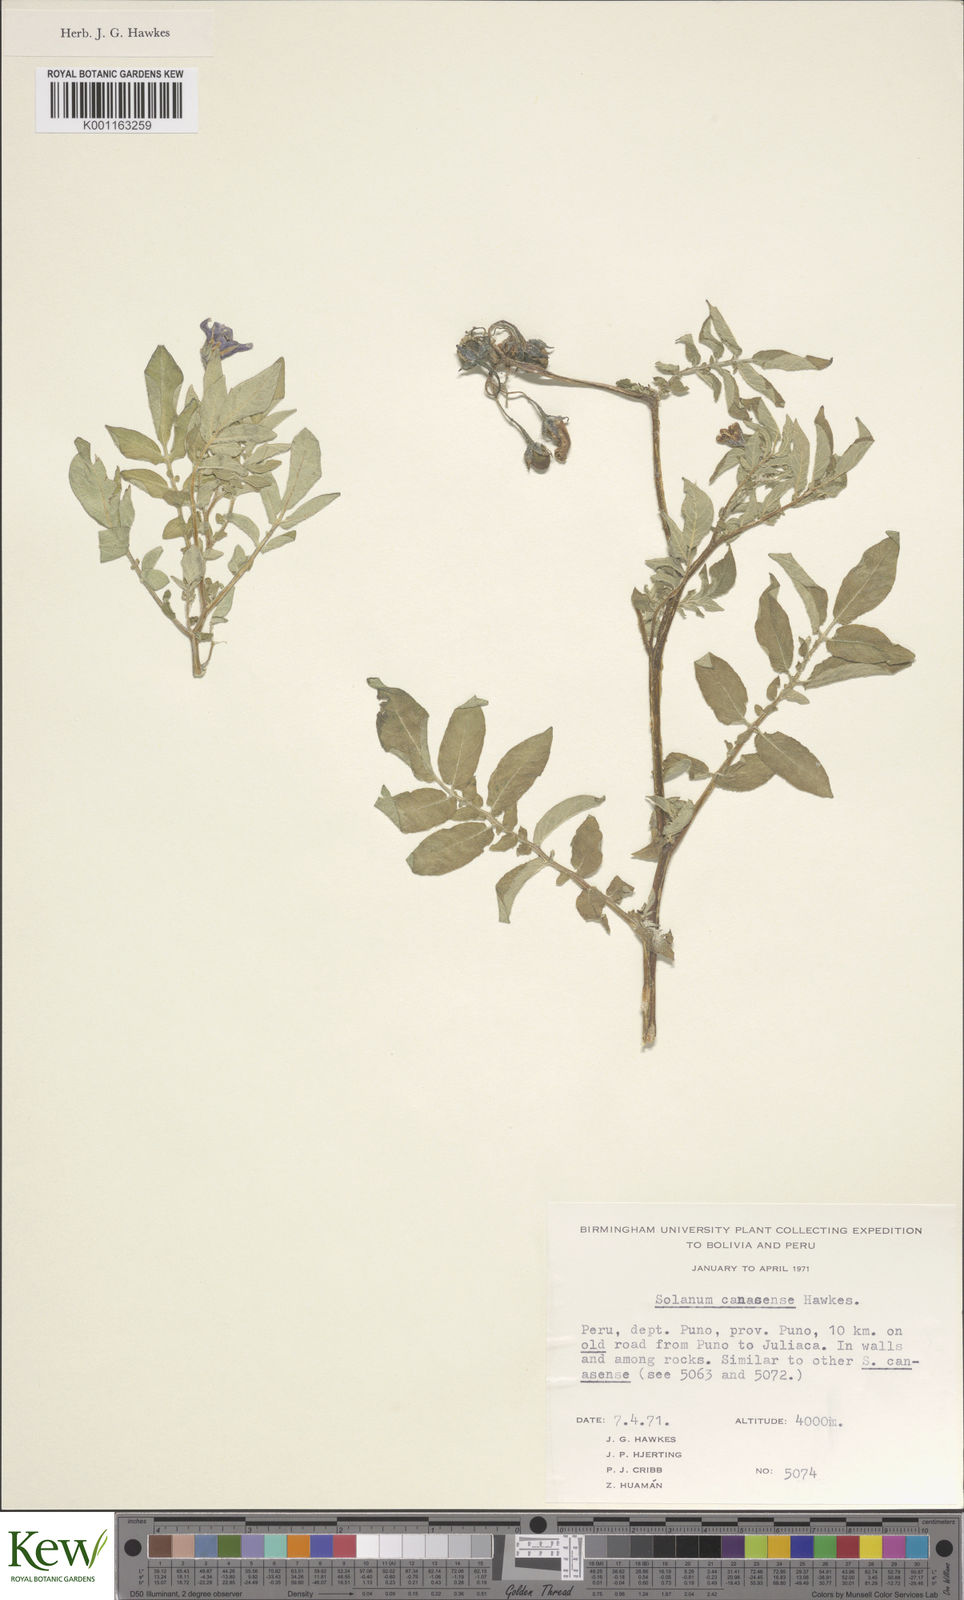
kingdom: Plantae
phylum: Tracheophyta
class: Magnoliopsida
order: Solanales
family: Solanaceae
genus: Solanum
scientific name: Solanum candolleanum
